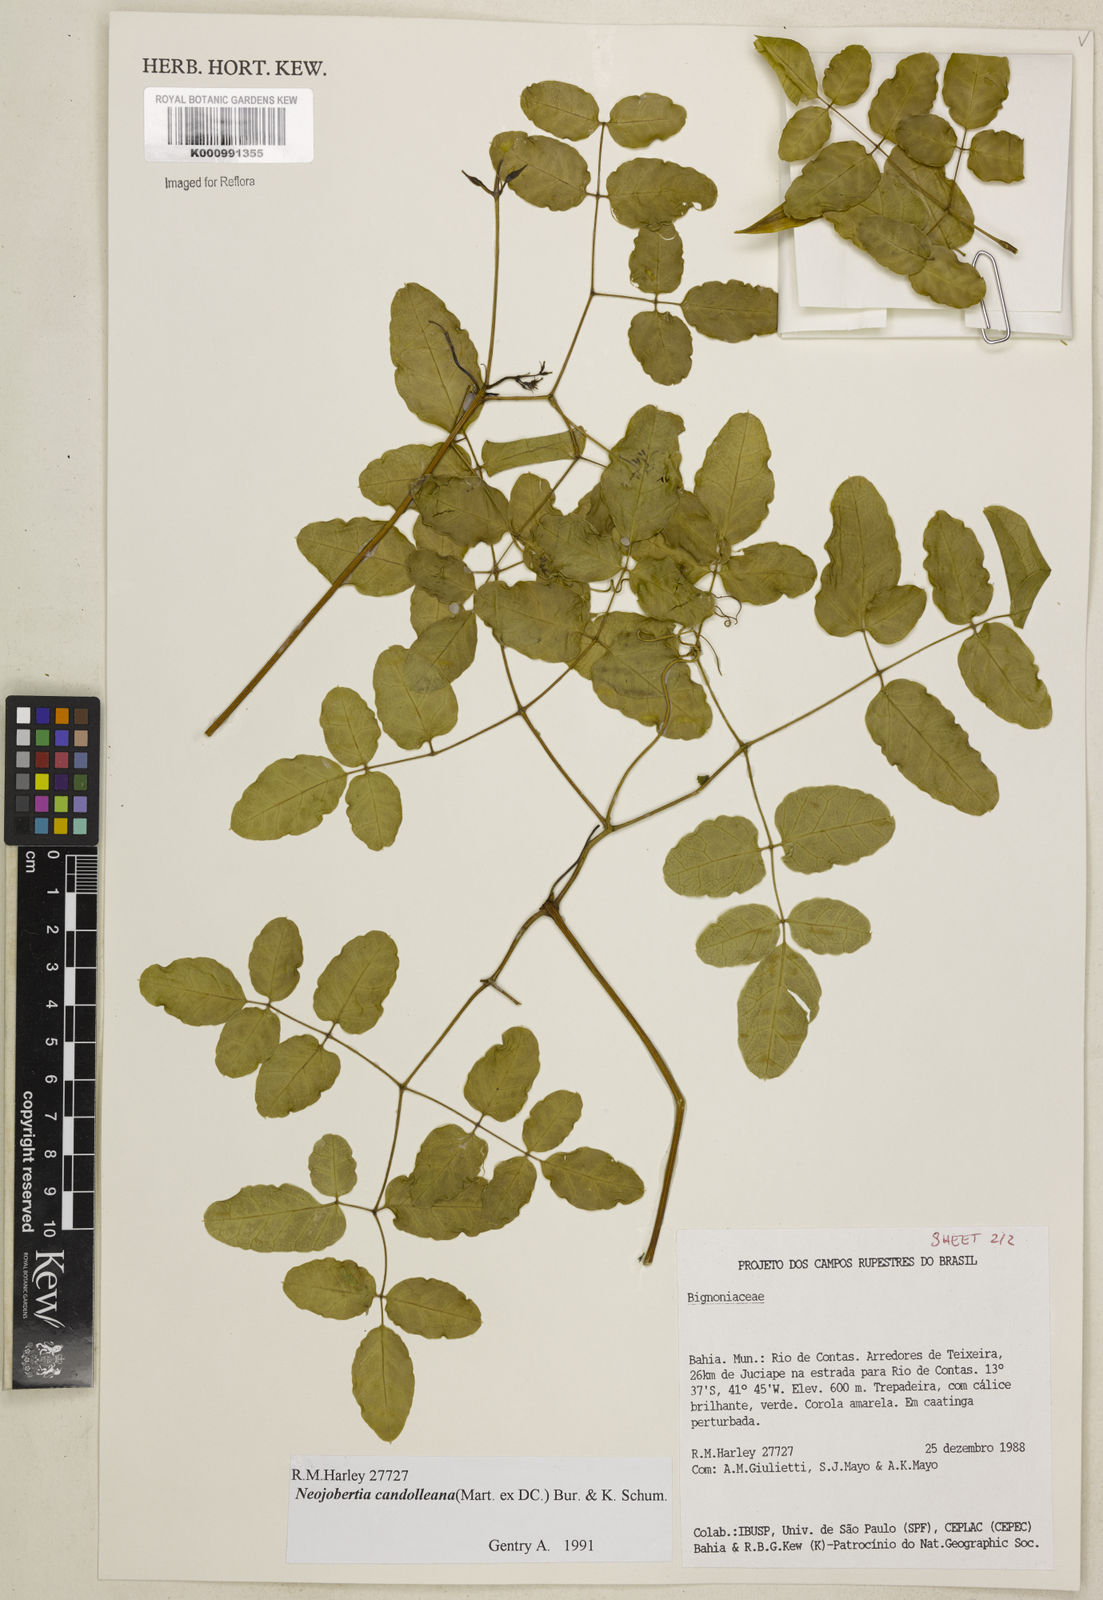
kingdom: Plantae
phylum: Tracheophyta
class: Magnoliopsida
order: Lamiales
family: Bignoniaceae
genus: Adenocalymma
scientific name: Adenocalymma candolleanum
